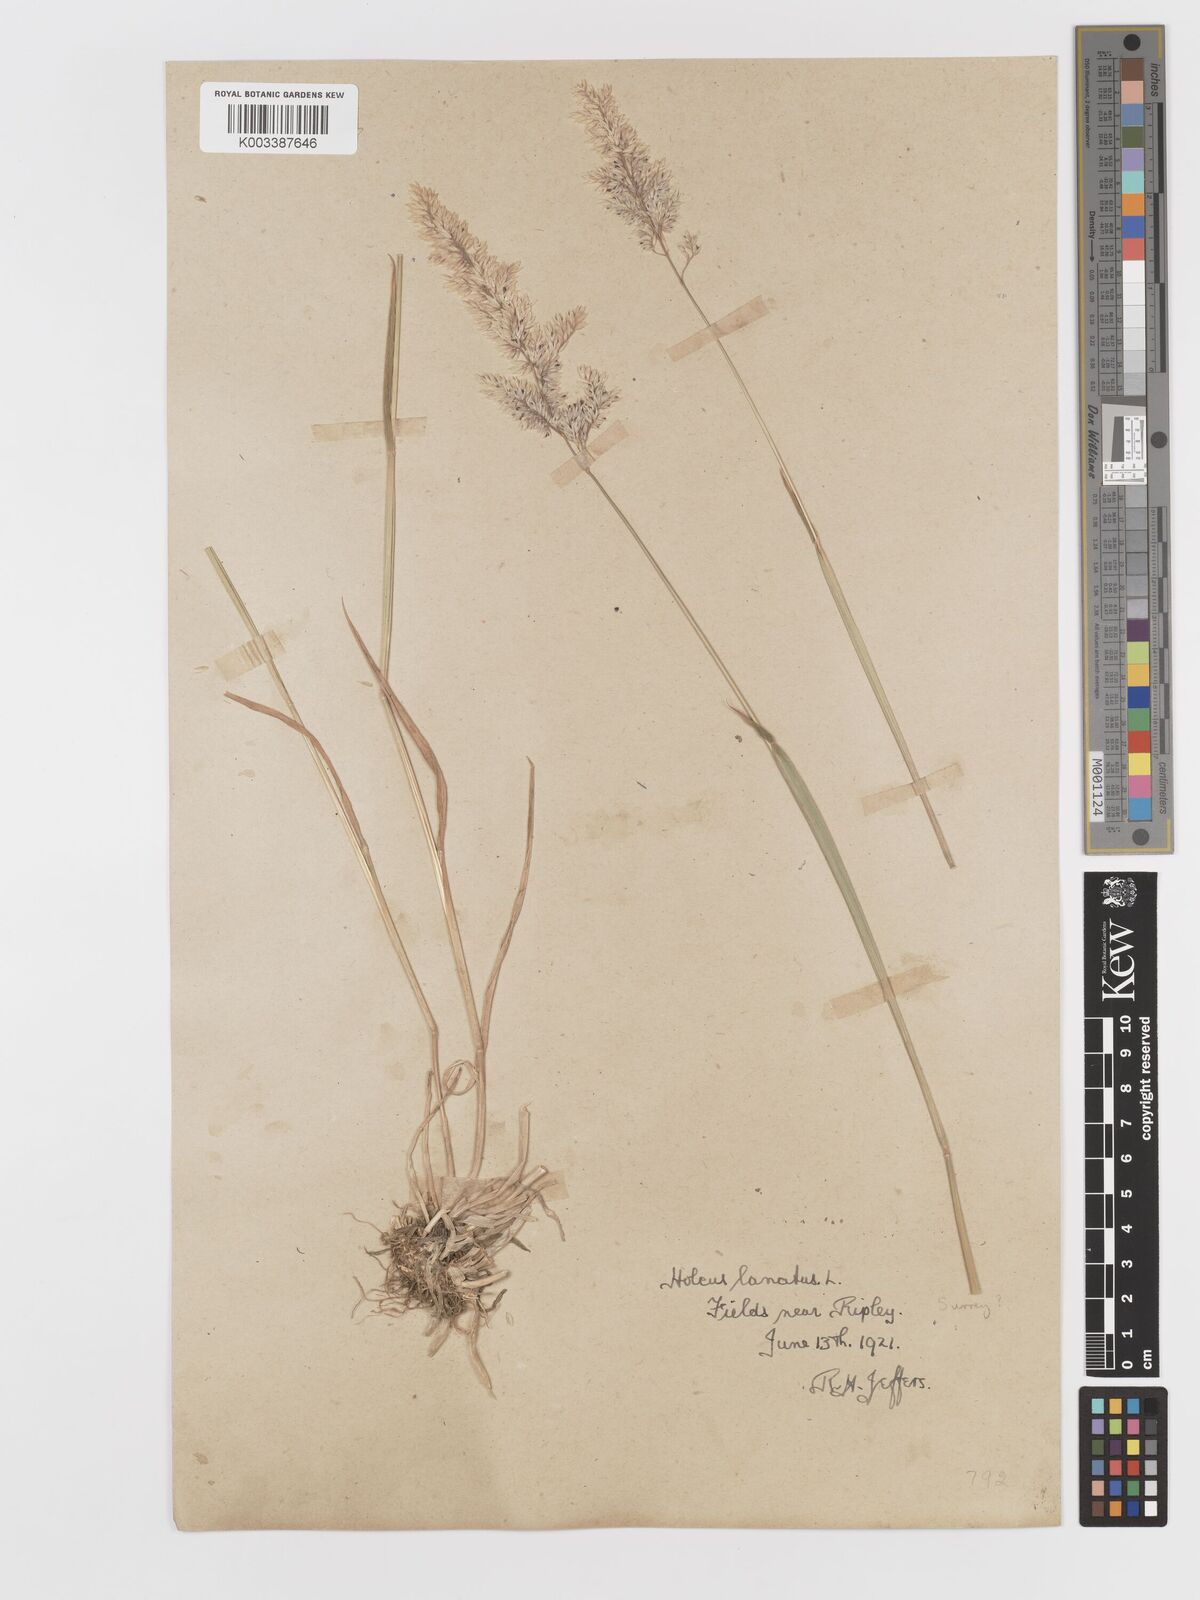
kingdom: Plantae
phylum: Tracheophyta
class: Liliopsida
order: Poales
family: Poaceae
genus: Holcus
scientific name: Holcus lanatus
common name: Yorkshire-fog
